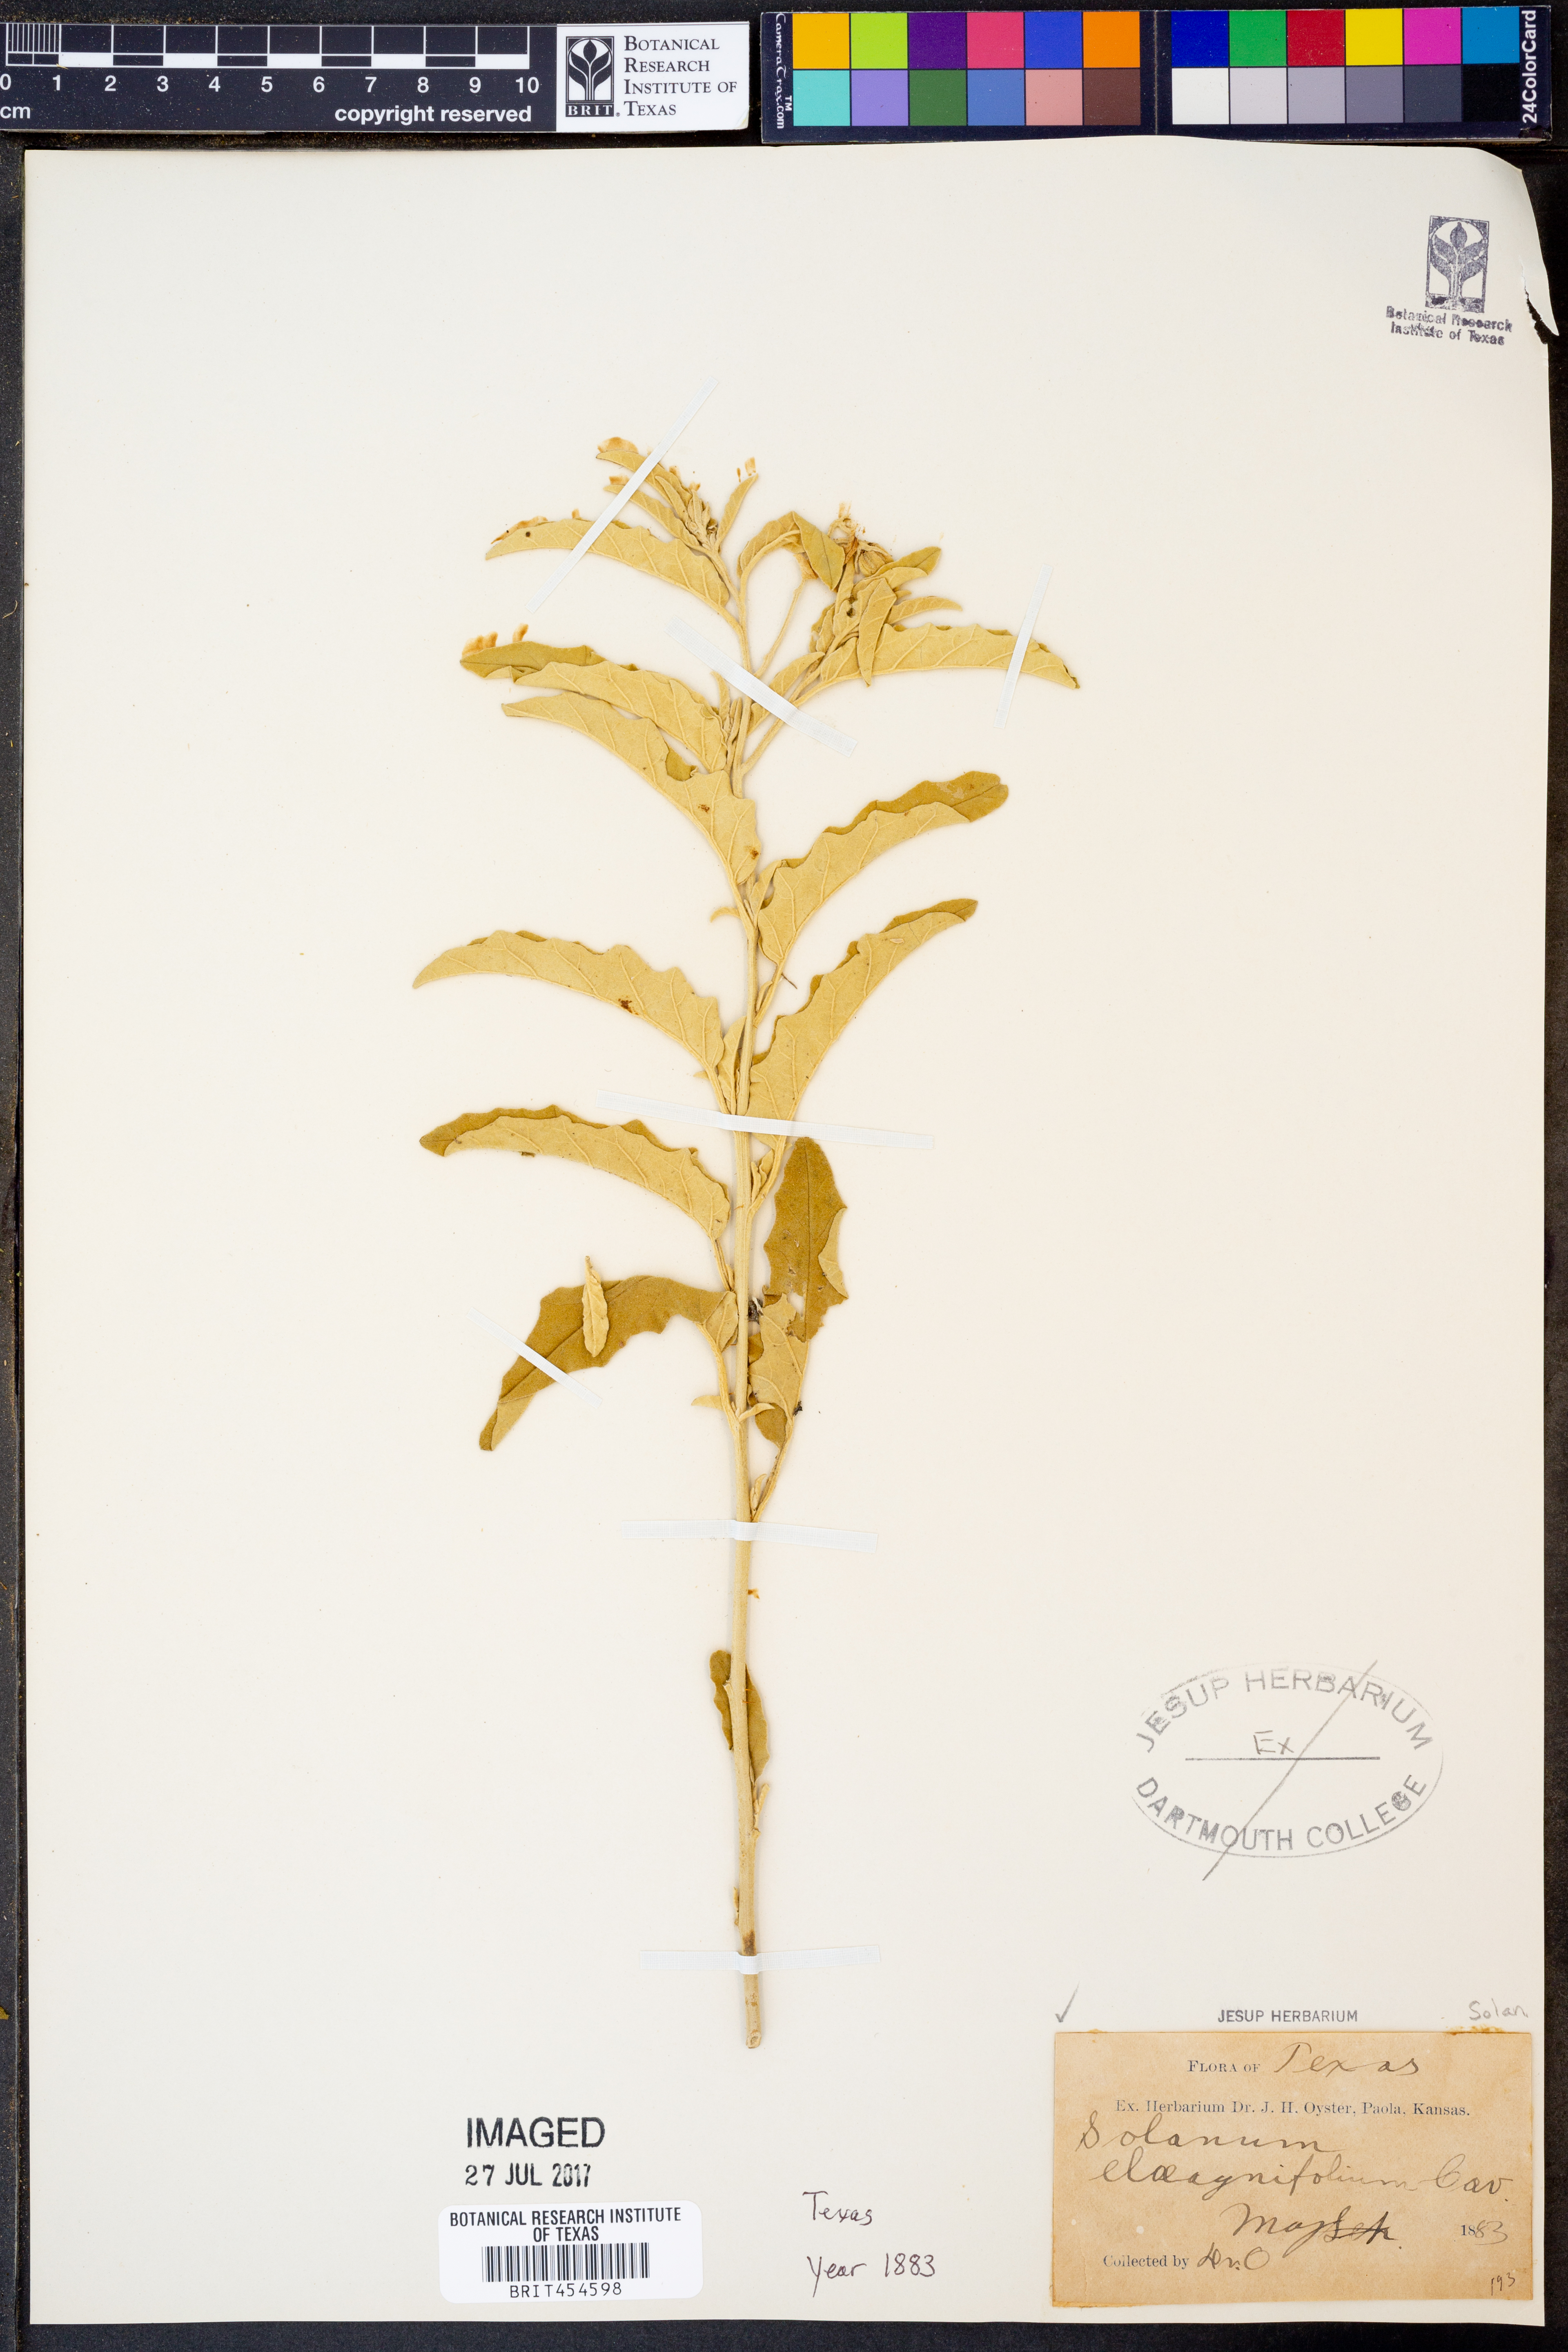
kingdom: Plantae
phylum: Tracheophyta
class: Magnoliopsida
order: Solanales
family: Solanaceae
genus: Solanum
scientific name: Solanum elaeagnifolium
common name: Silverleaf nightshade
